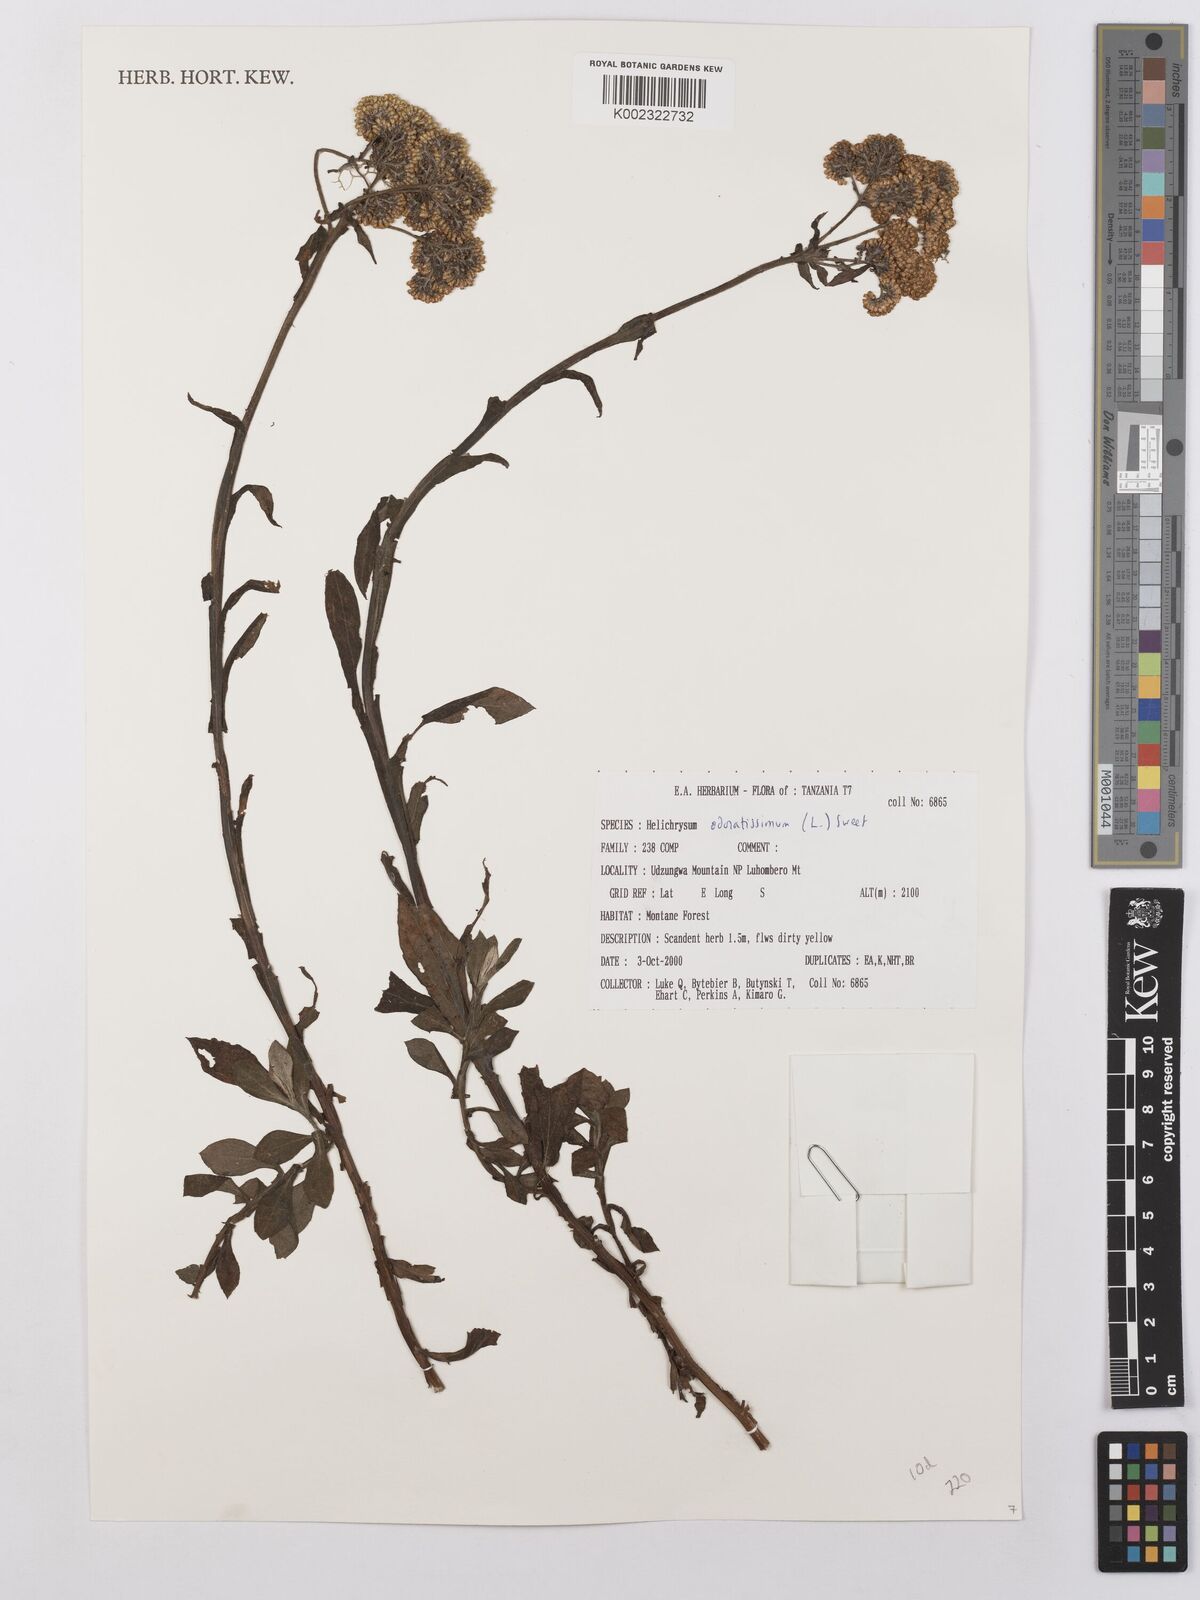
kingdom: Plantae
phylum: Tracheophyta
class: Magnoliopsida
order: Asterales
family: Asteraceae
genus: Helichrysum
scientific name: Helichrysum odoratissimum
